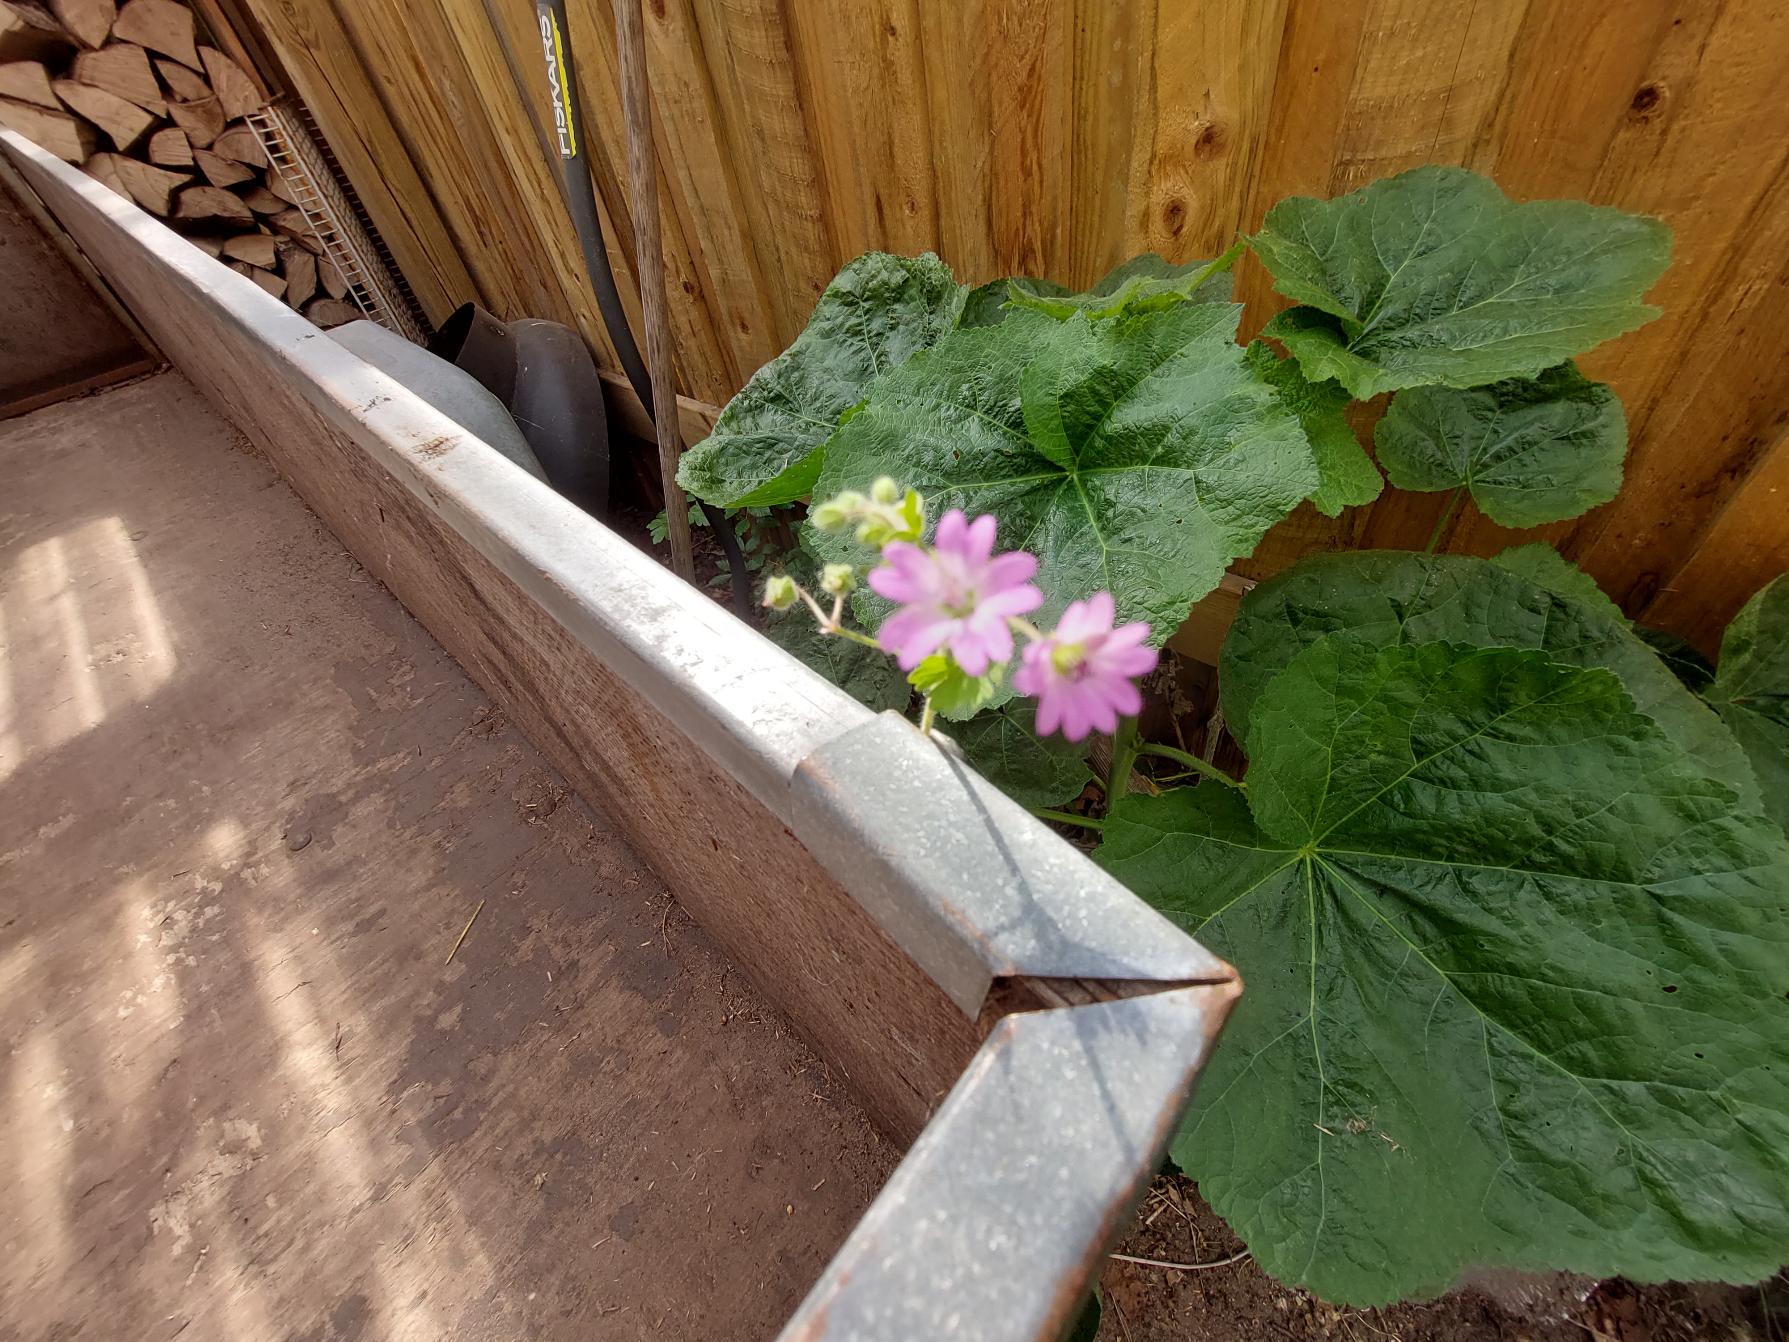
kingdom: Plantae
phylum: Tracheophyta
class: Magnoliopsida
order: Geraniales
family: Geraniaceae
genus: Geranium
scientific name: Geranium molle
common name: Blød storkenæb
